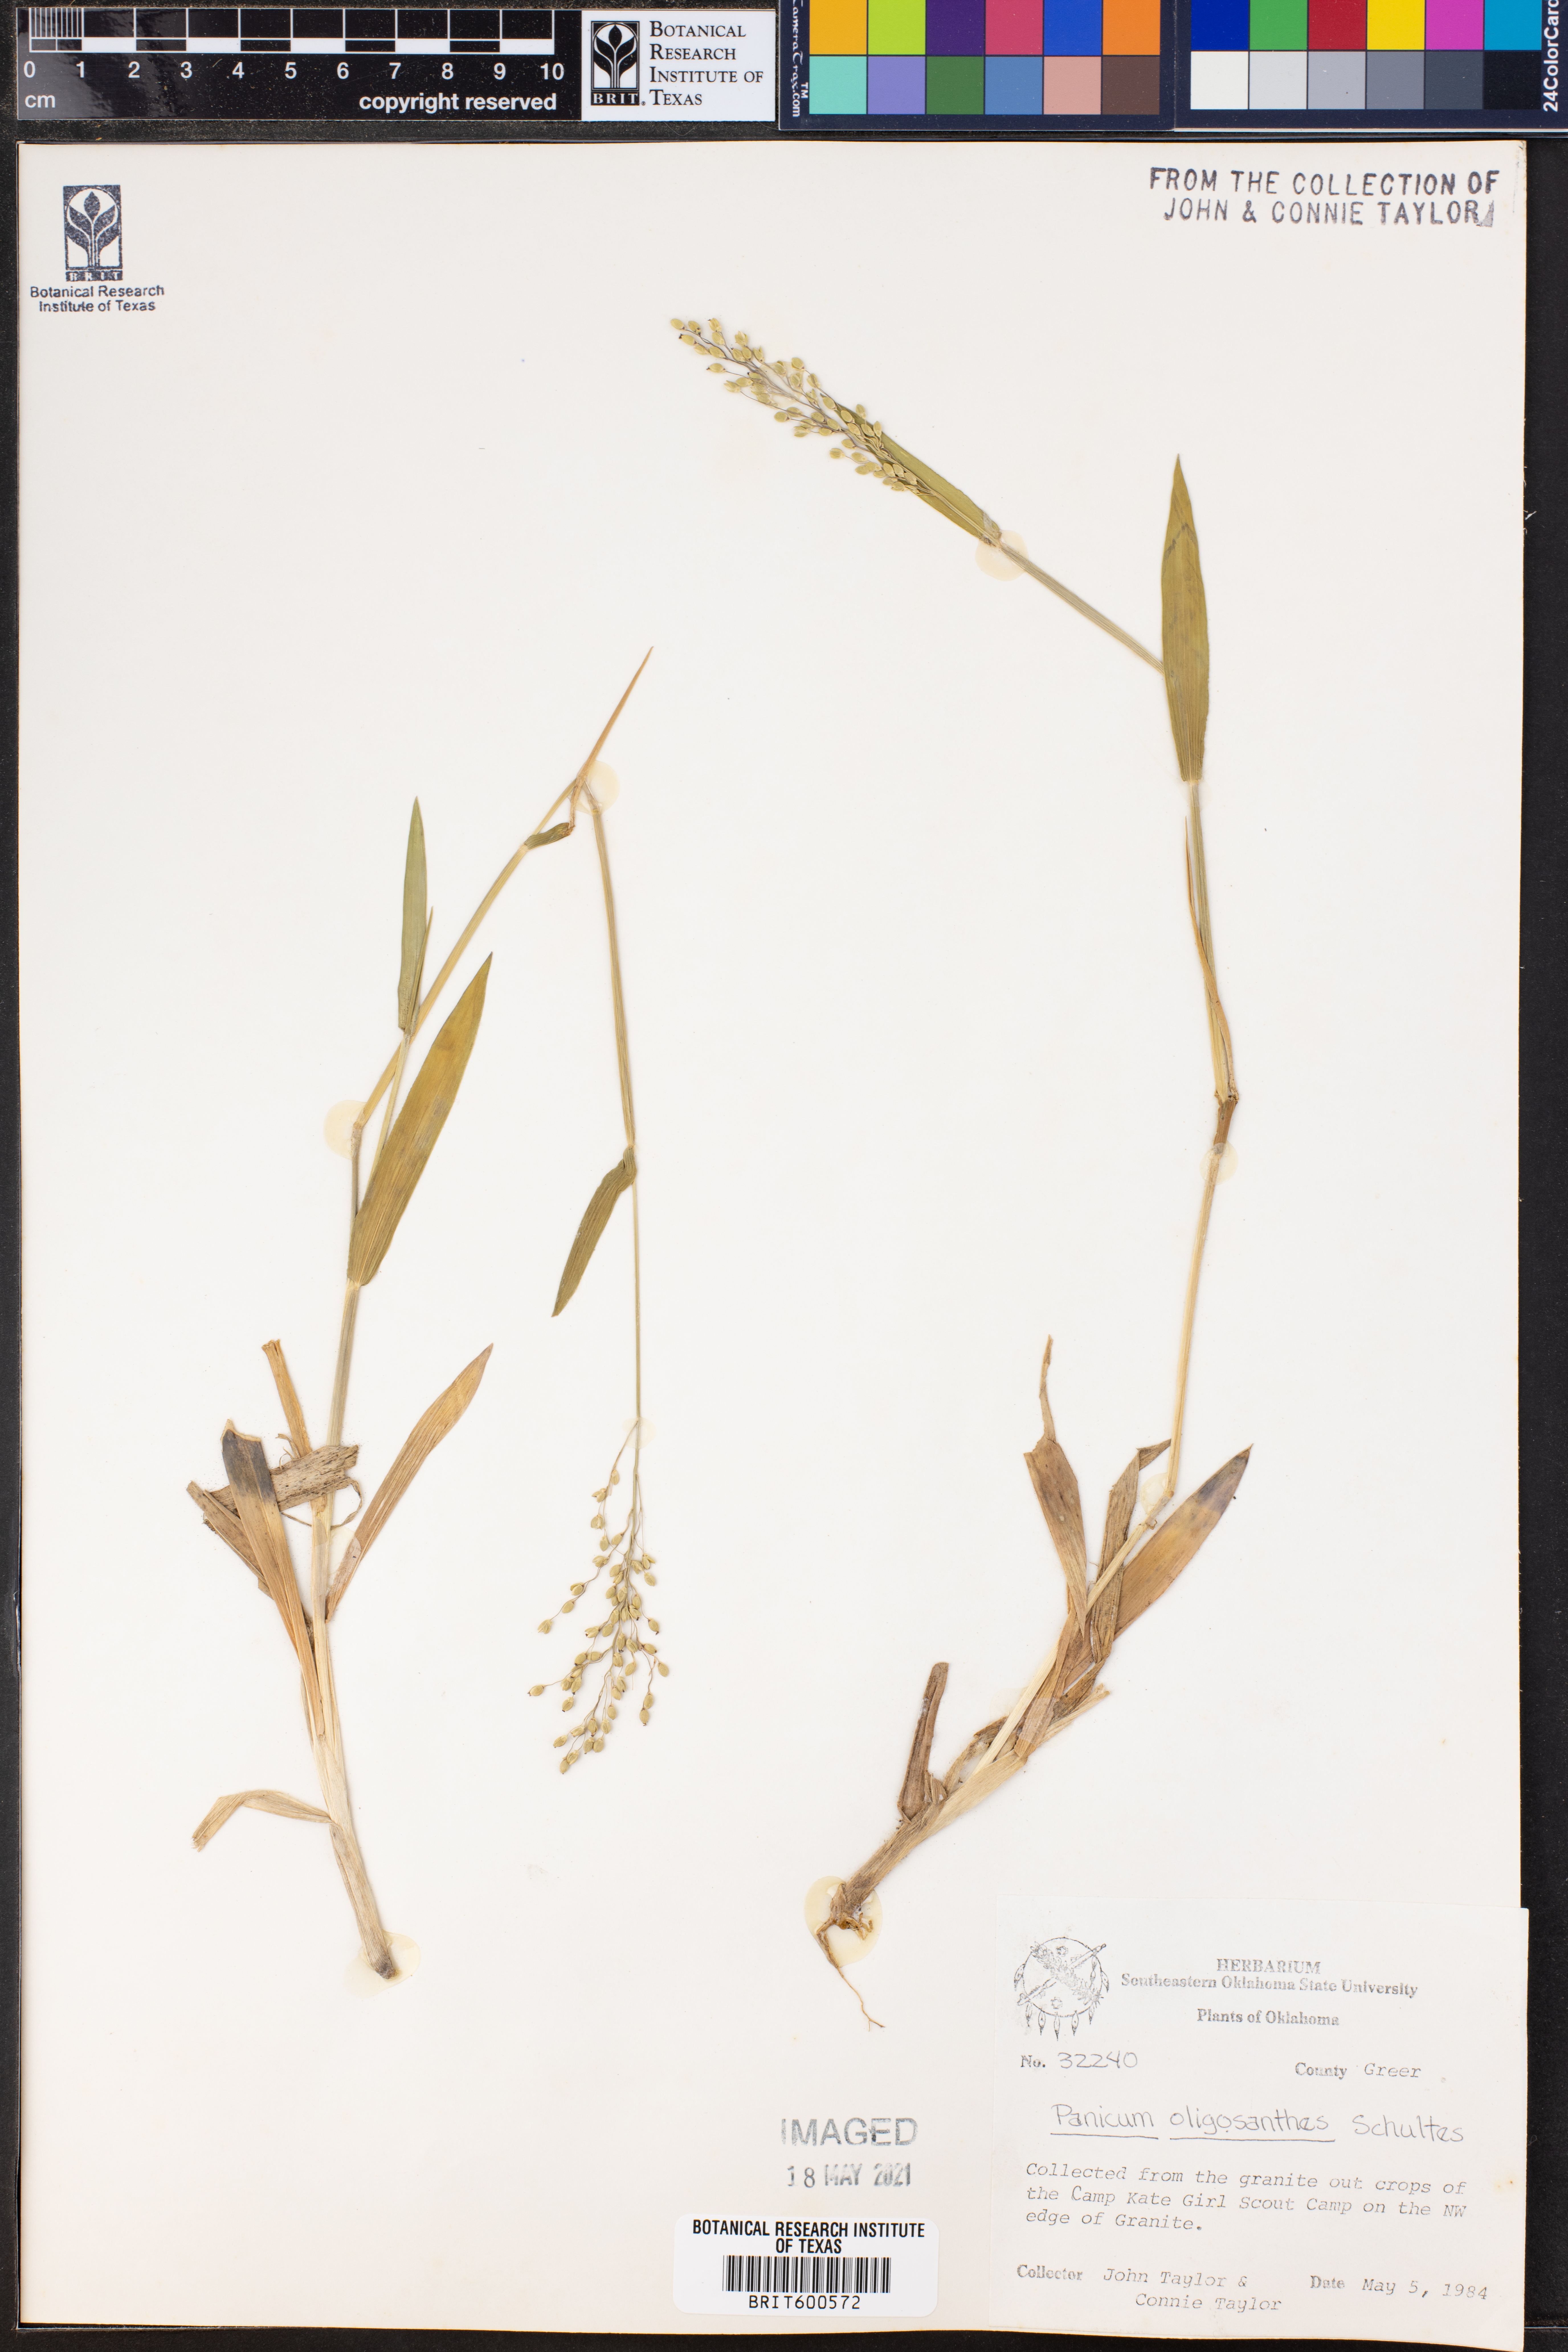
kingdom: Plantae
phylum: Tracheophyta
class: Liliopsida
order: Poales
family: Poaceae
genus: Dichanthelium
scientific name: Dichanthelium oligosanthes
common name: Few-anther obscuregrass
